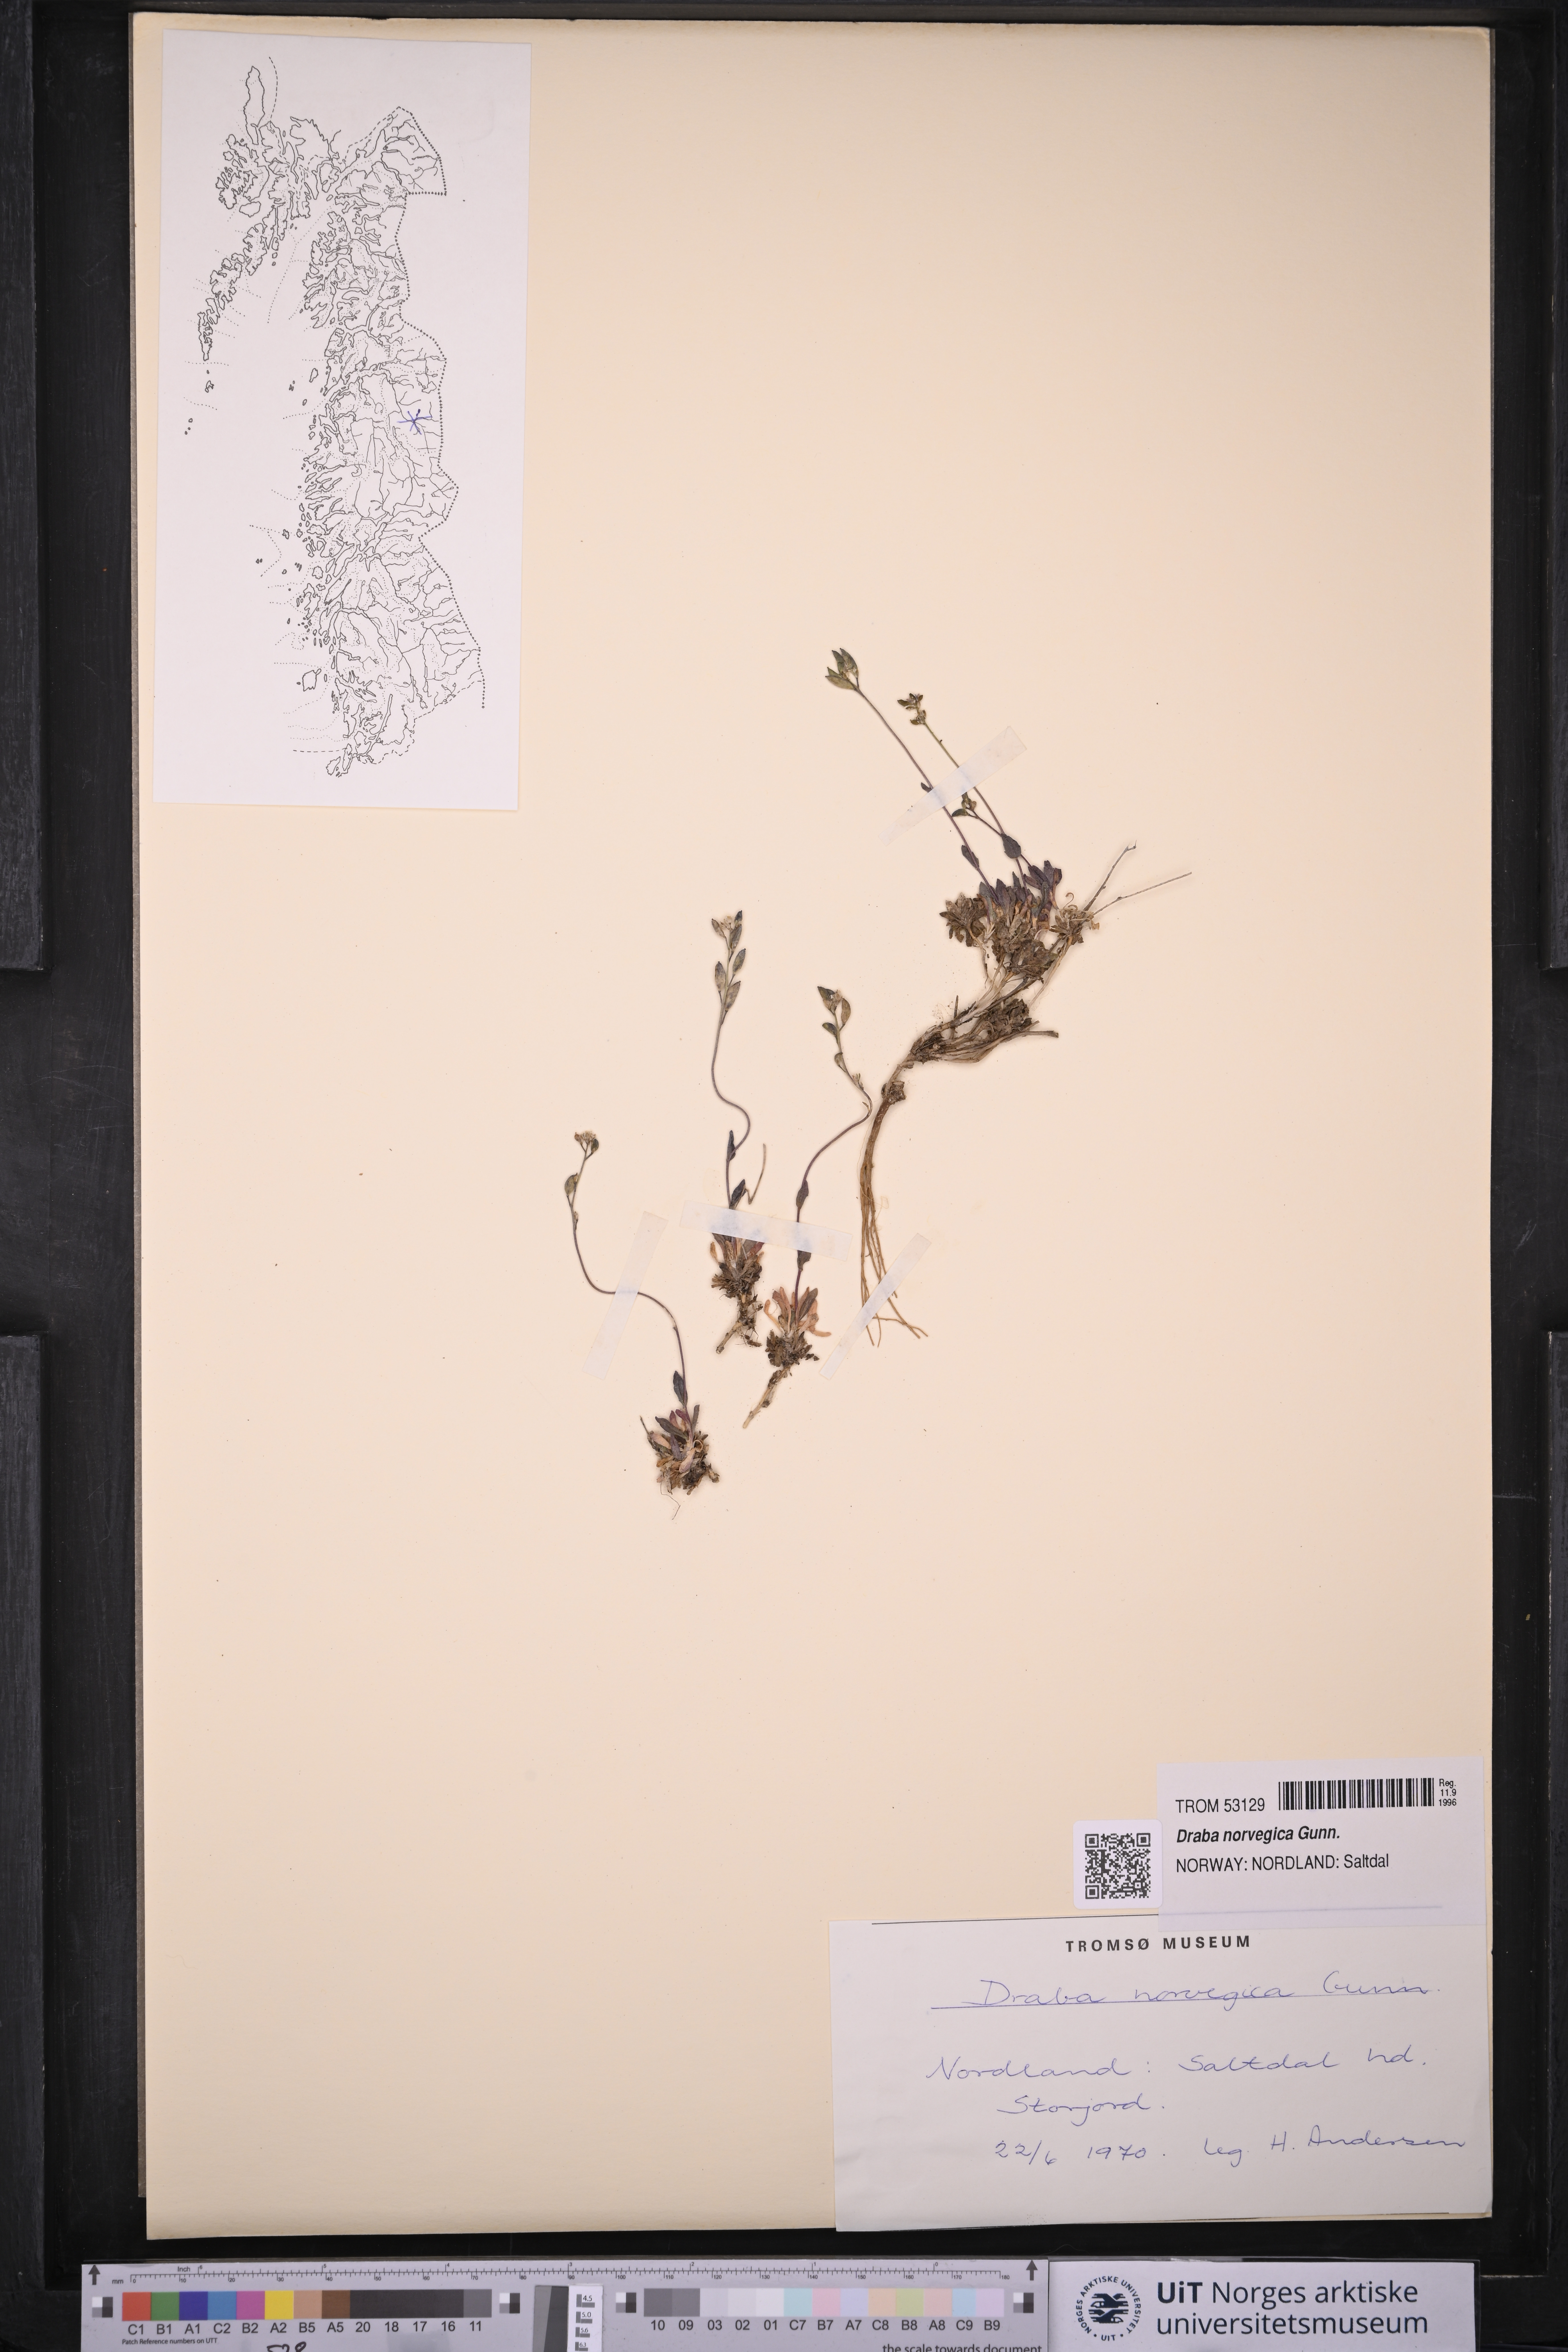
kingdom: Plantae
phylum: Tracheophyta
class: Magnoliopsida
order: Brassicales
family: Brassicaceae
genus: Draba
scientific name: Draba norvegica
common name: Rock whitlowgrass
